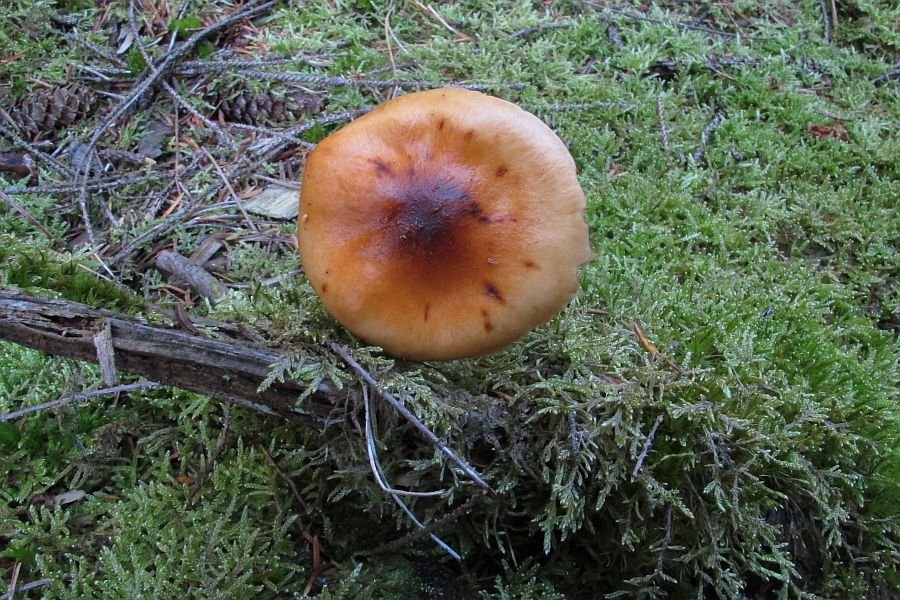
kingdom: Fungi
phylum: Basidiomycota
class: Agaricomycetes
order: Agaricales
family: Cortinariaceae
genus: Cortinarius
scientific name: Cortinarius collinitus
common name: spættet slørhat
